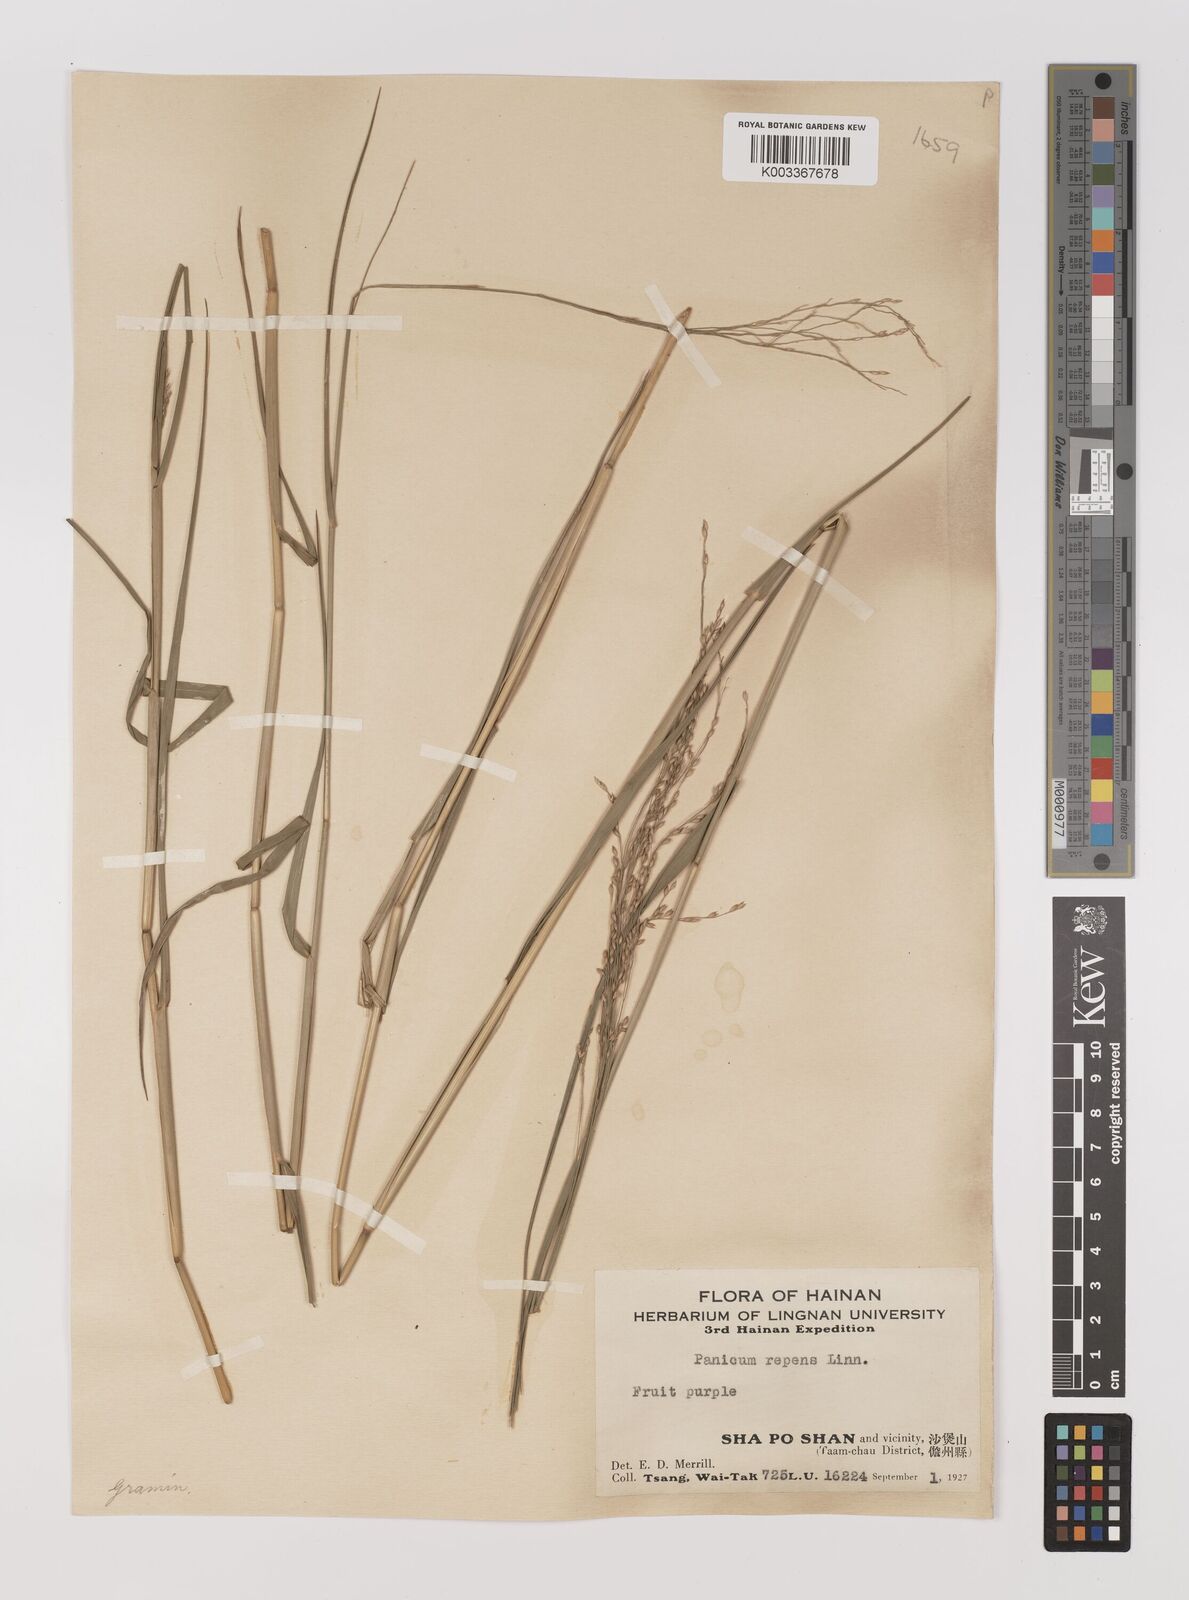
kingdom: Plantae
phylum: Tracheophyta
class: Liliopsida
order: Poales
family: Poaceae
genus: Panicum
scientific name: Panicum repens
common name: Torpedo grass
